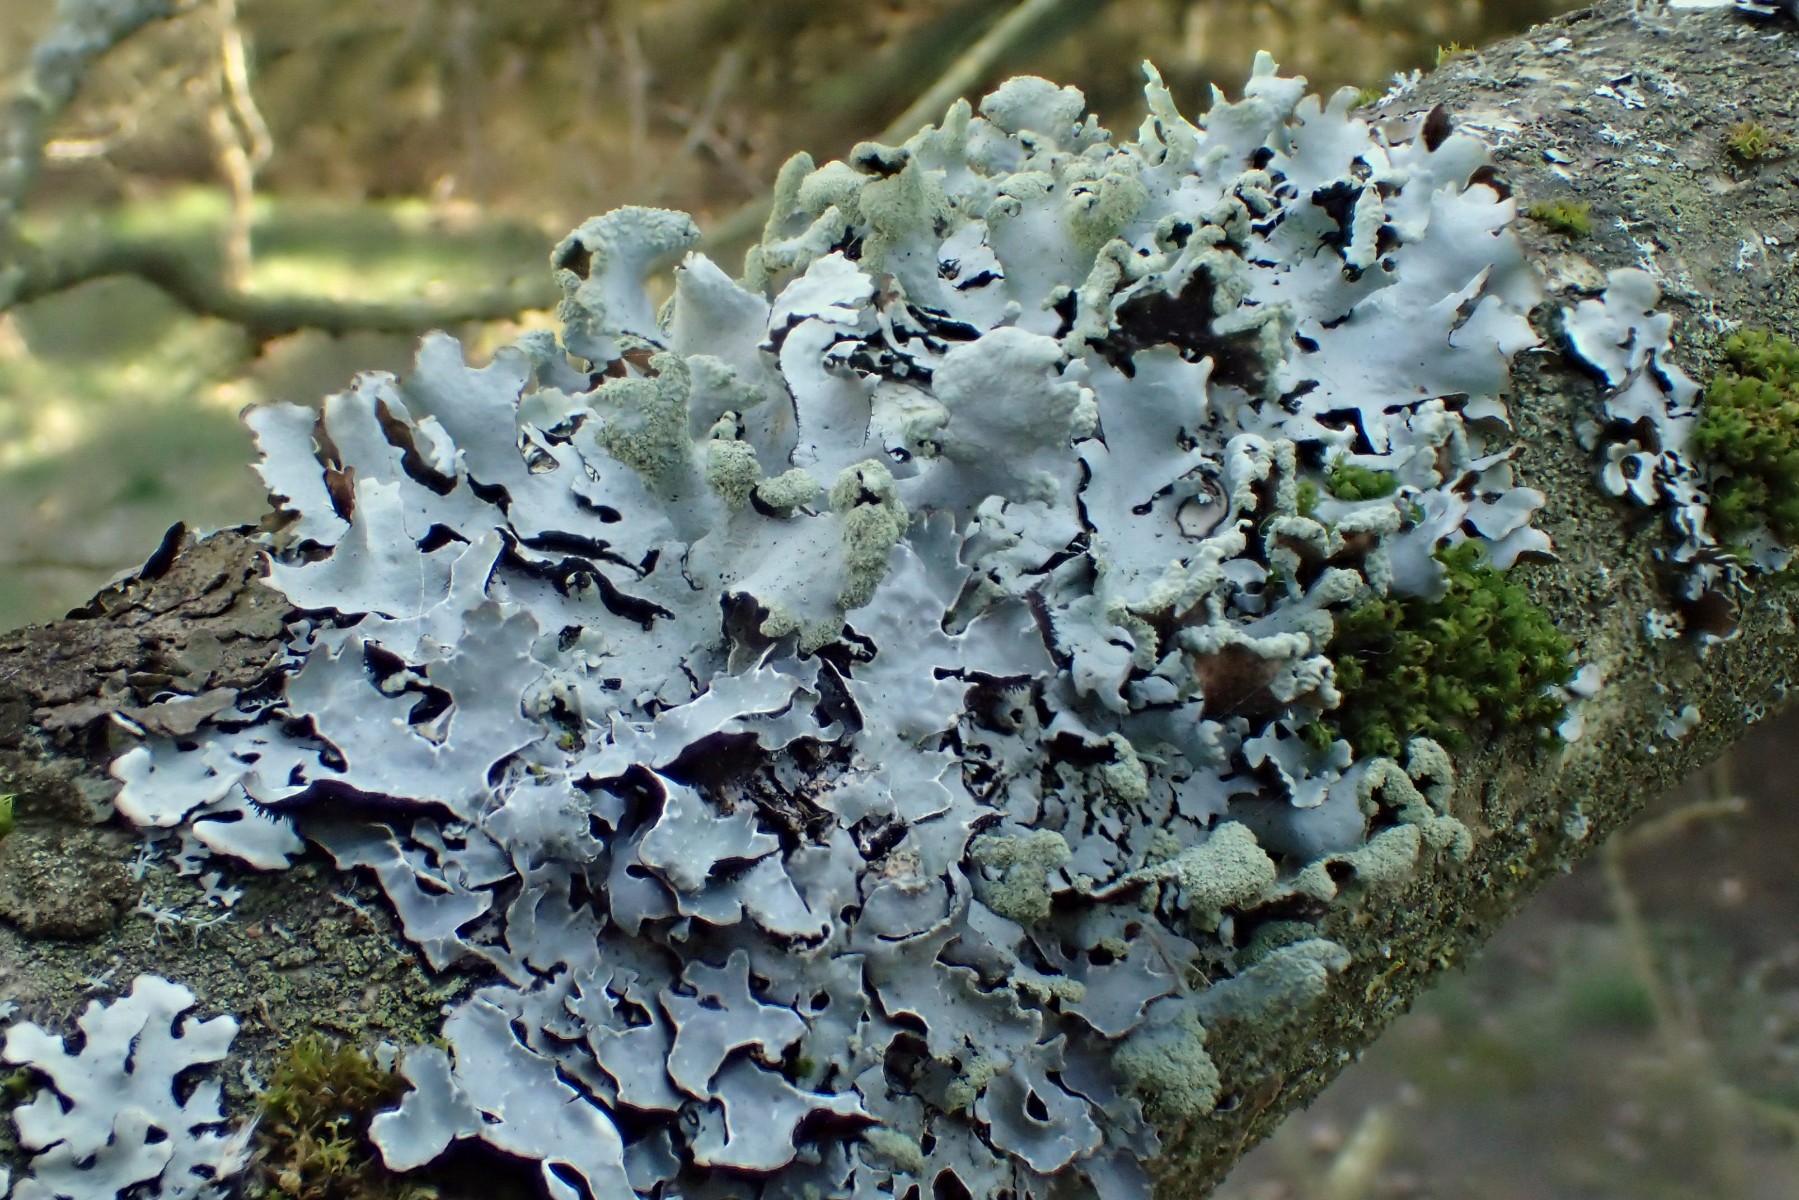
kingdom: Fungi
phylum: Ascomycota
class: Lecanoromycetes
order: Lecanorales
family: Parmeliaceae
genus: Hypotrachyna
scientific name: Hypotrachyna revoluta
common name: bleggrå skållav
